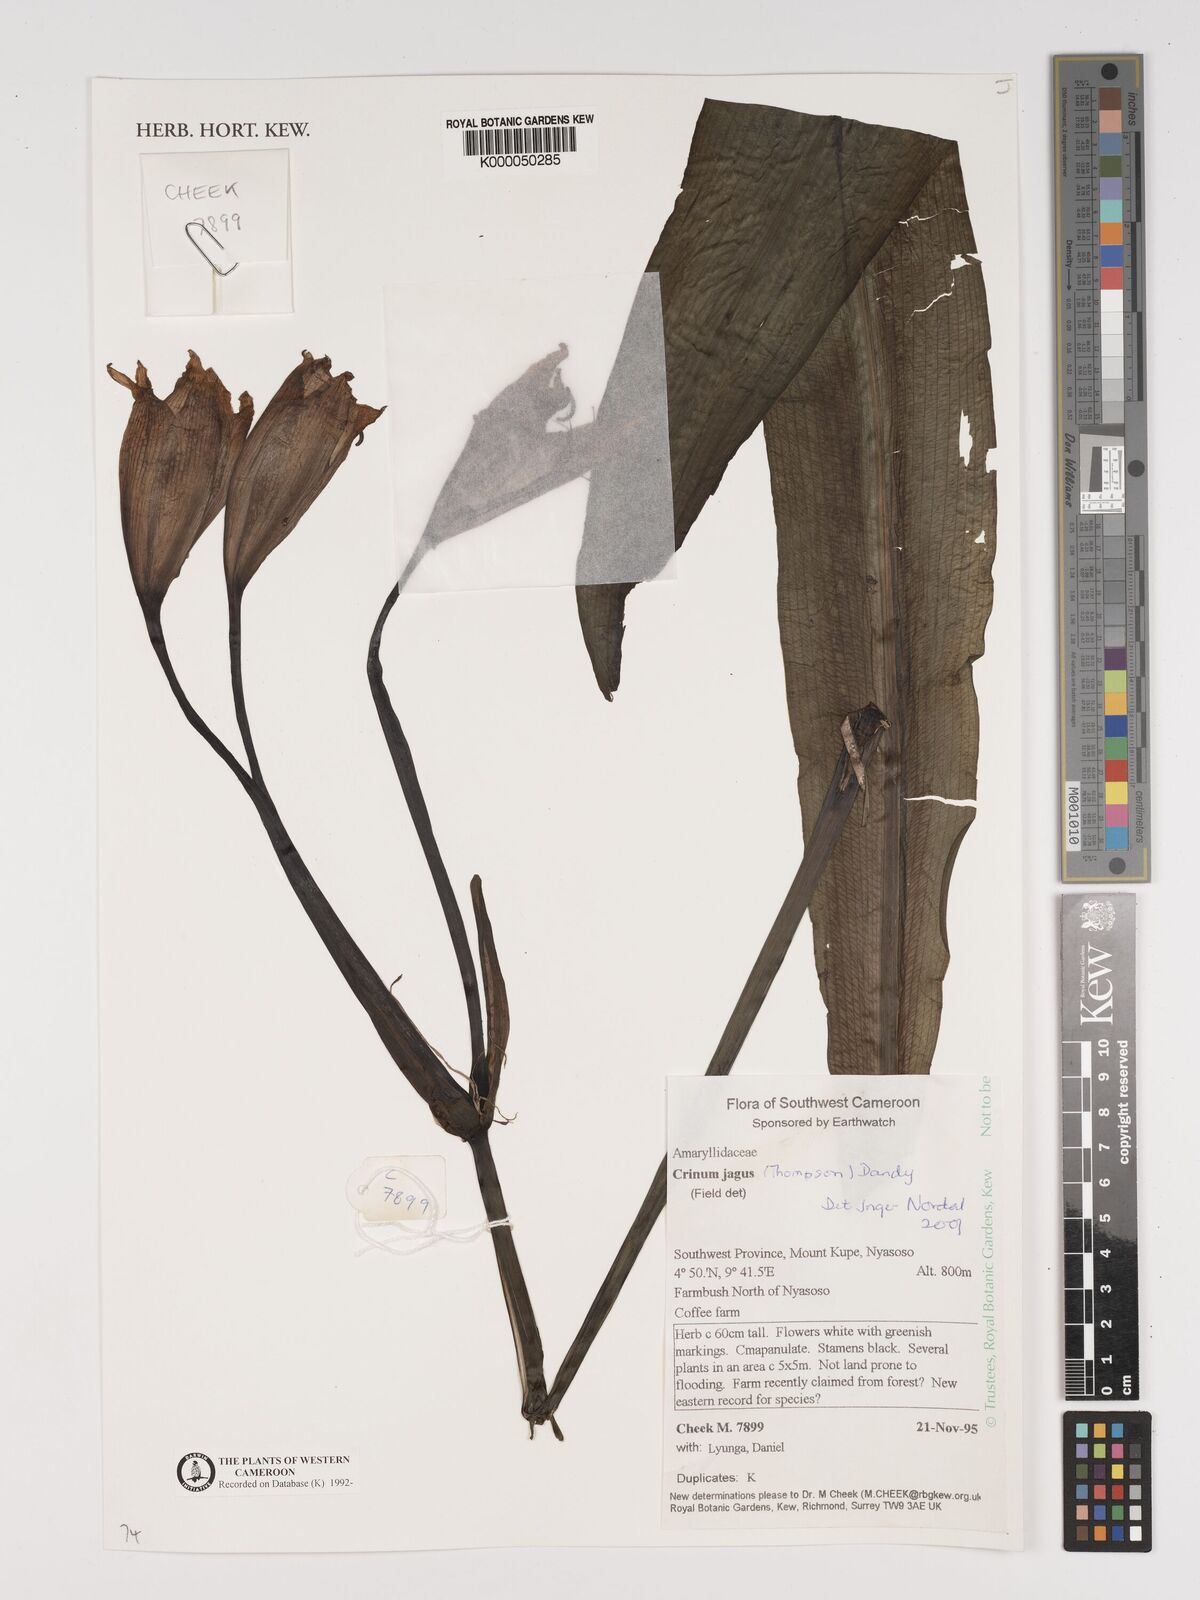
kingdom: Plantae
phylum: Tracheophyta
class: Liliopsida
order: Asparagales
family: Amaryllidaceae
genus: Crinum
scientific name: Crinum jagus
